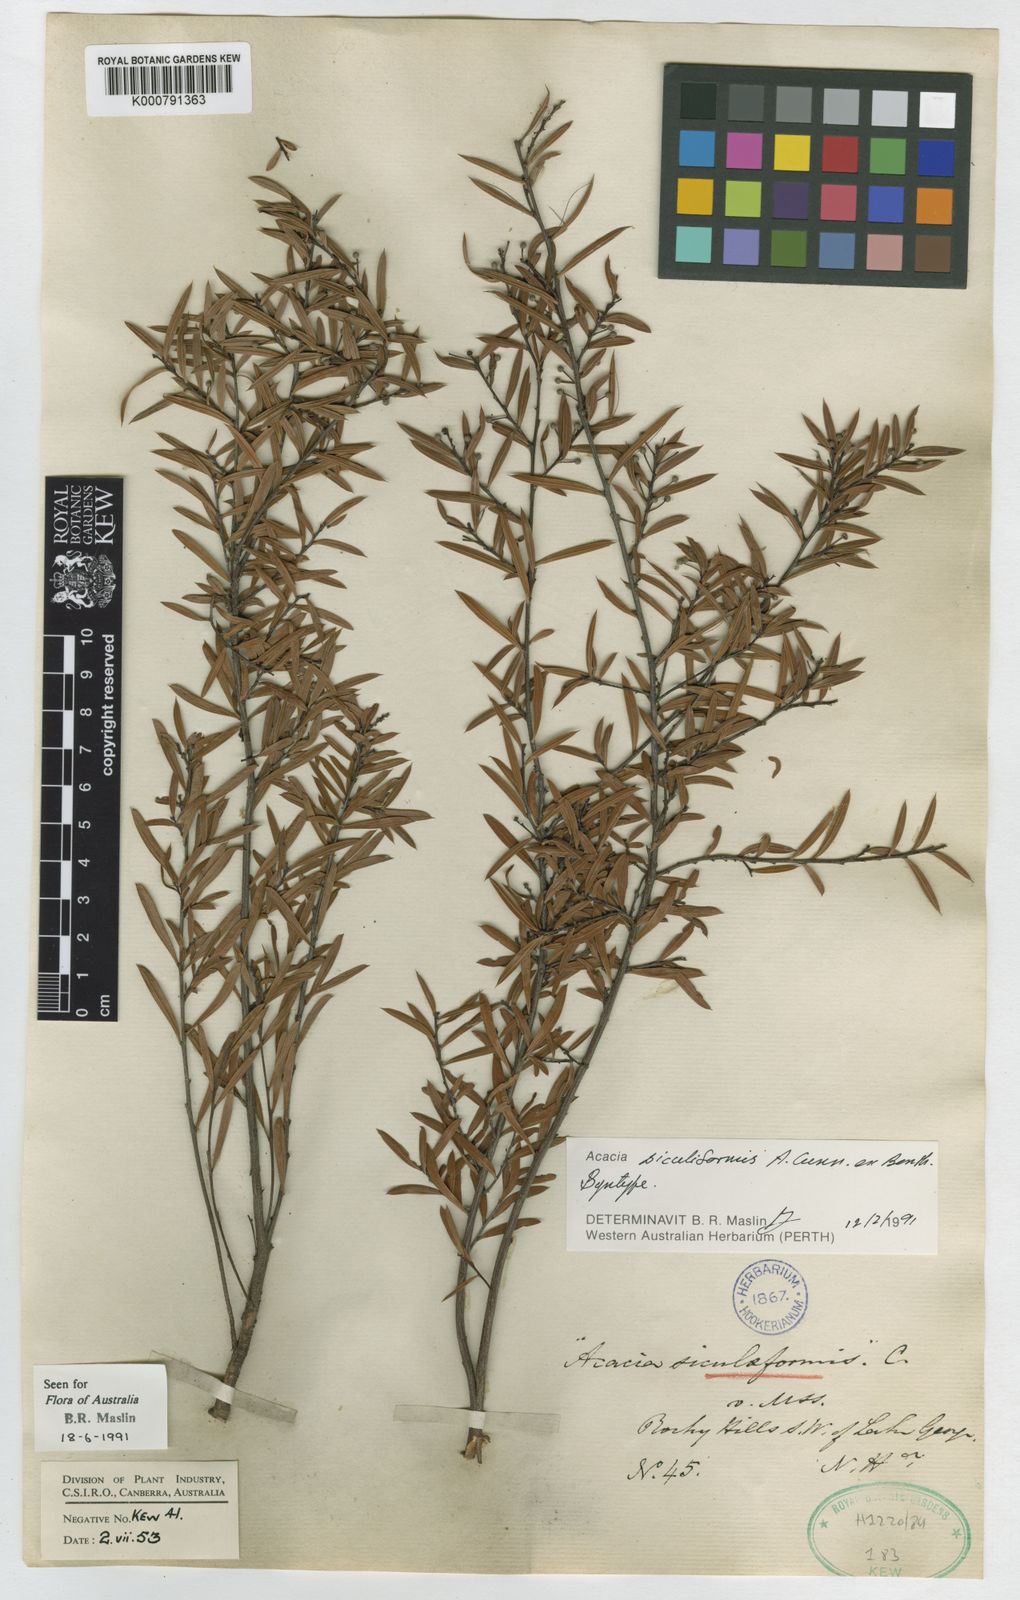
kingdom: Plantae
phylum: Tracheophyta
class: Magnoliopsida
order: Fabales
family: Fabaceae
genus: Acacia
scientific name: Acacia siculiformis
